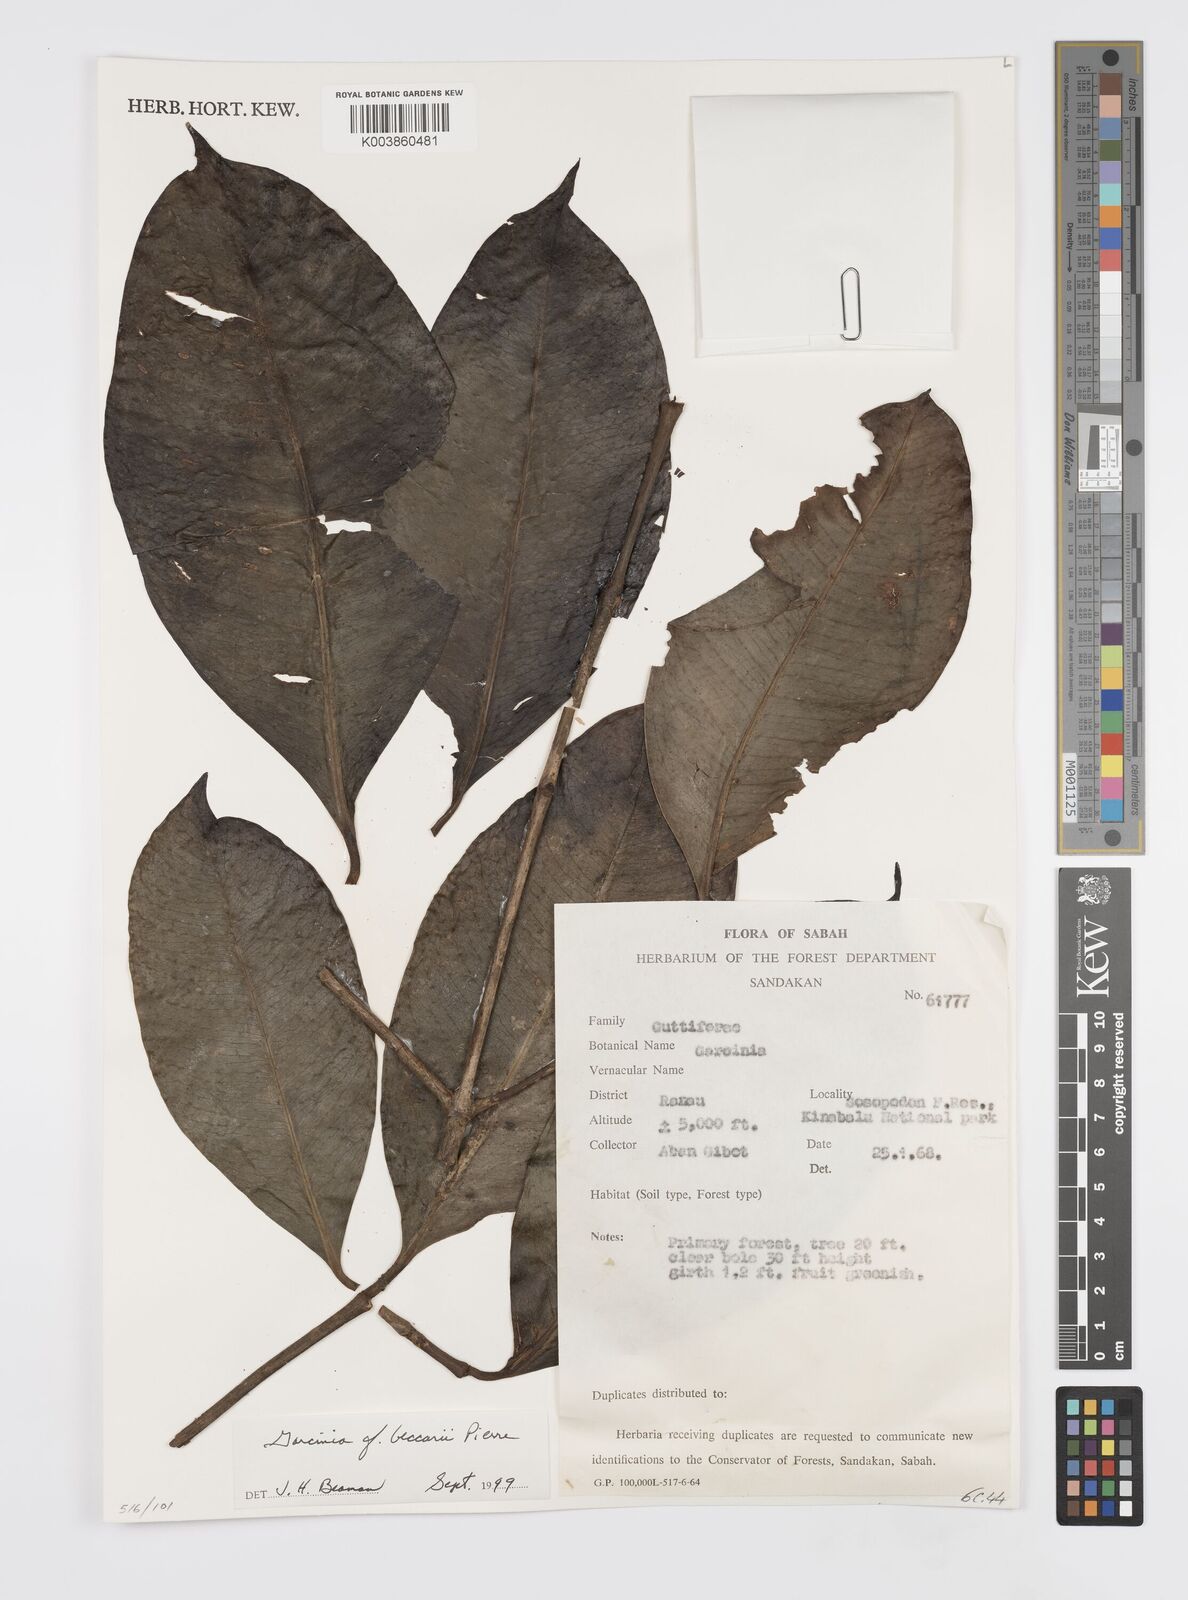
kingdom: Plantae
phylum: Tracheophyta
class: Magnoliopsida
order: Malpighiales
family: Clusiaceae
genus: Garcinia
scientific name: Garcinia beccarii
